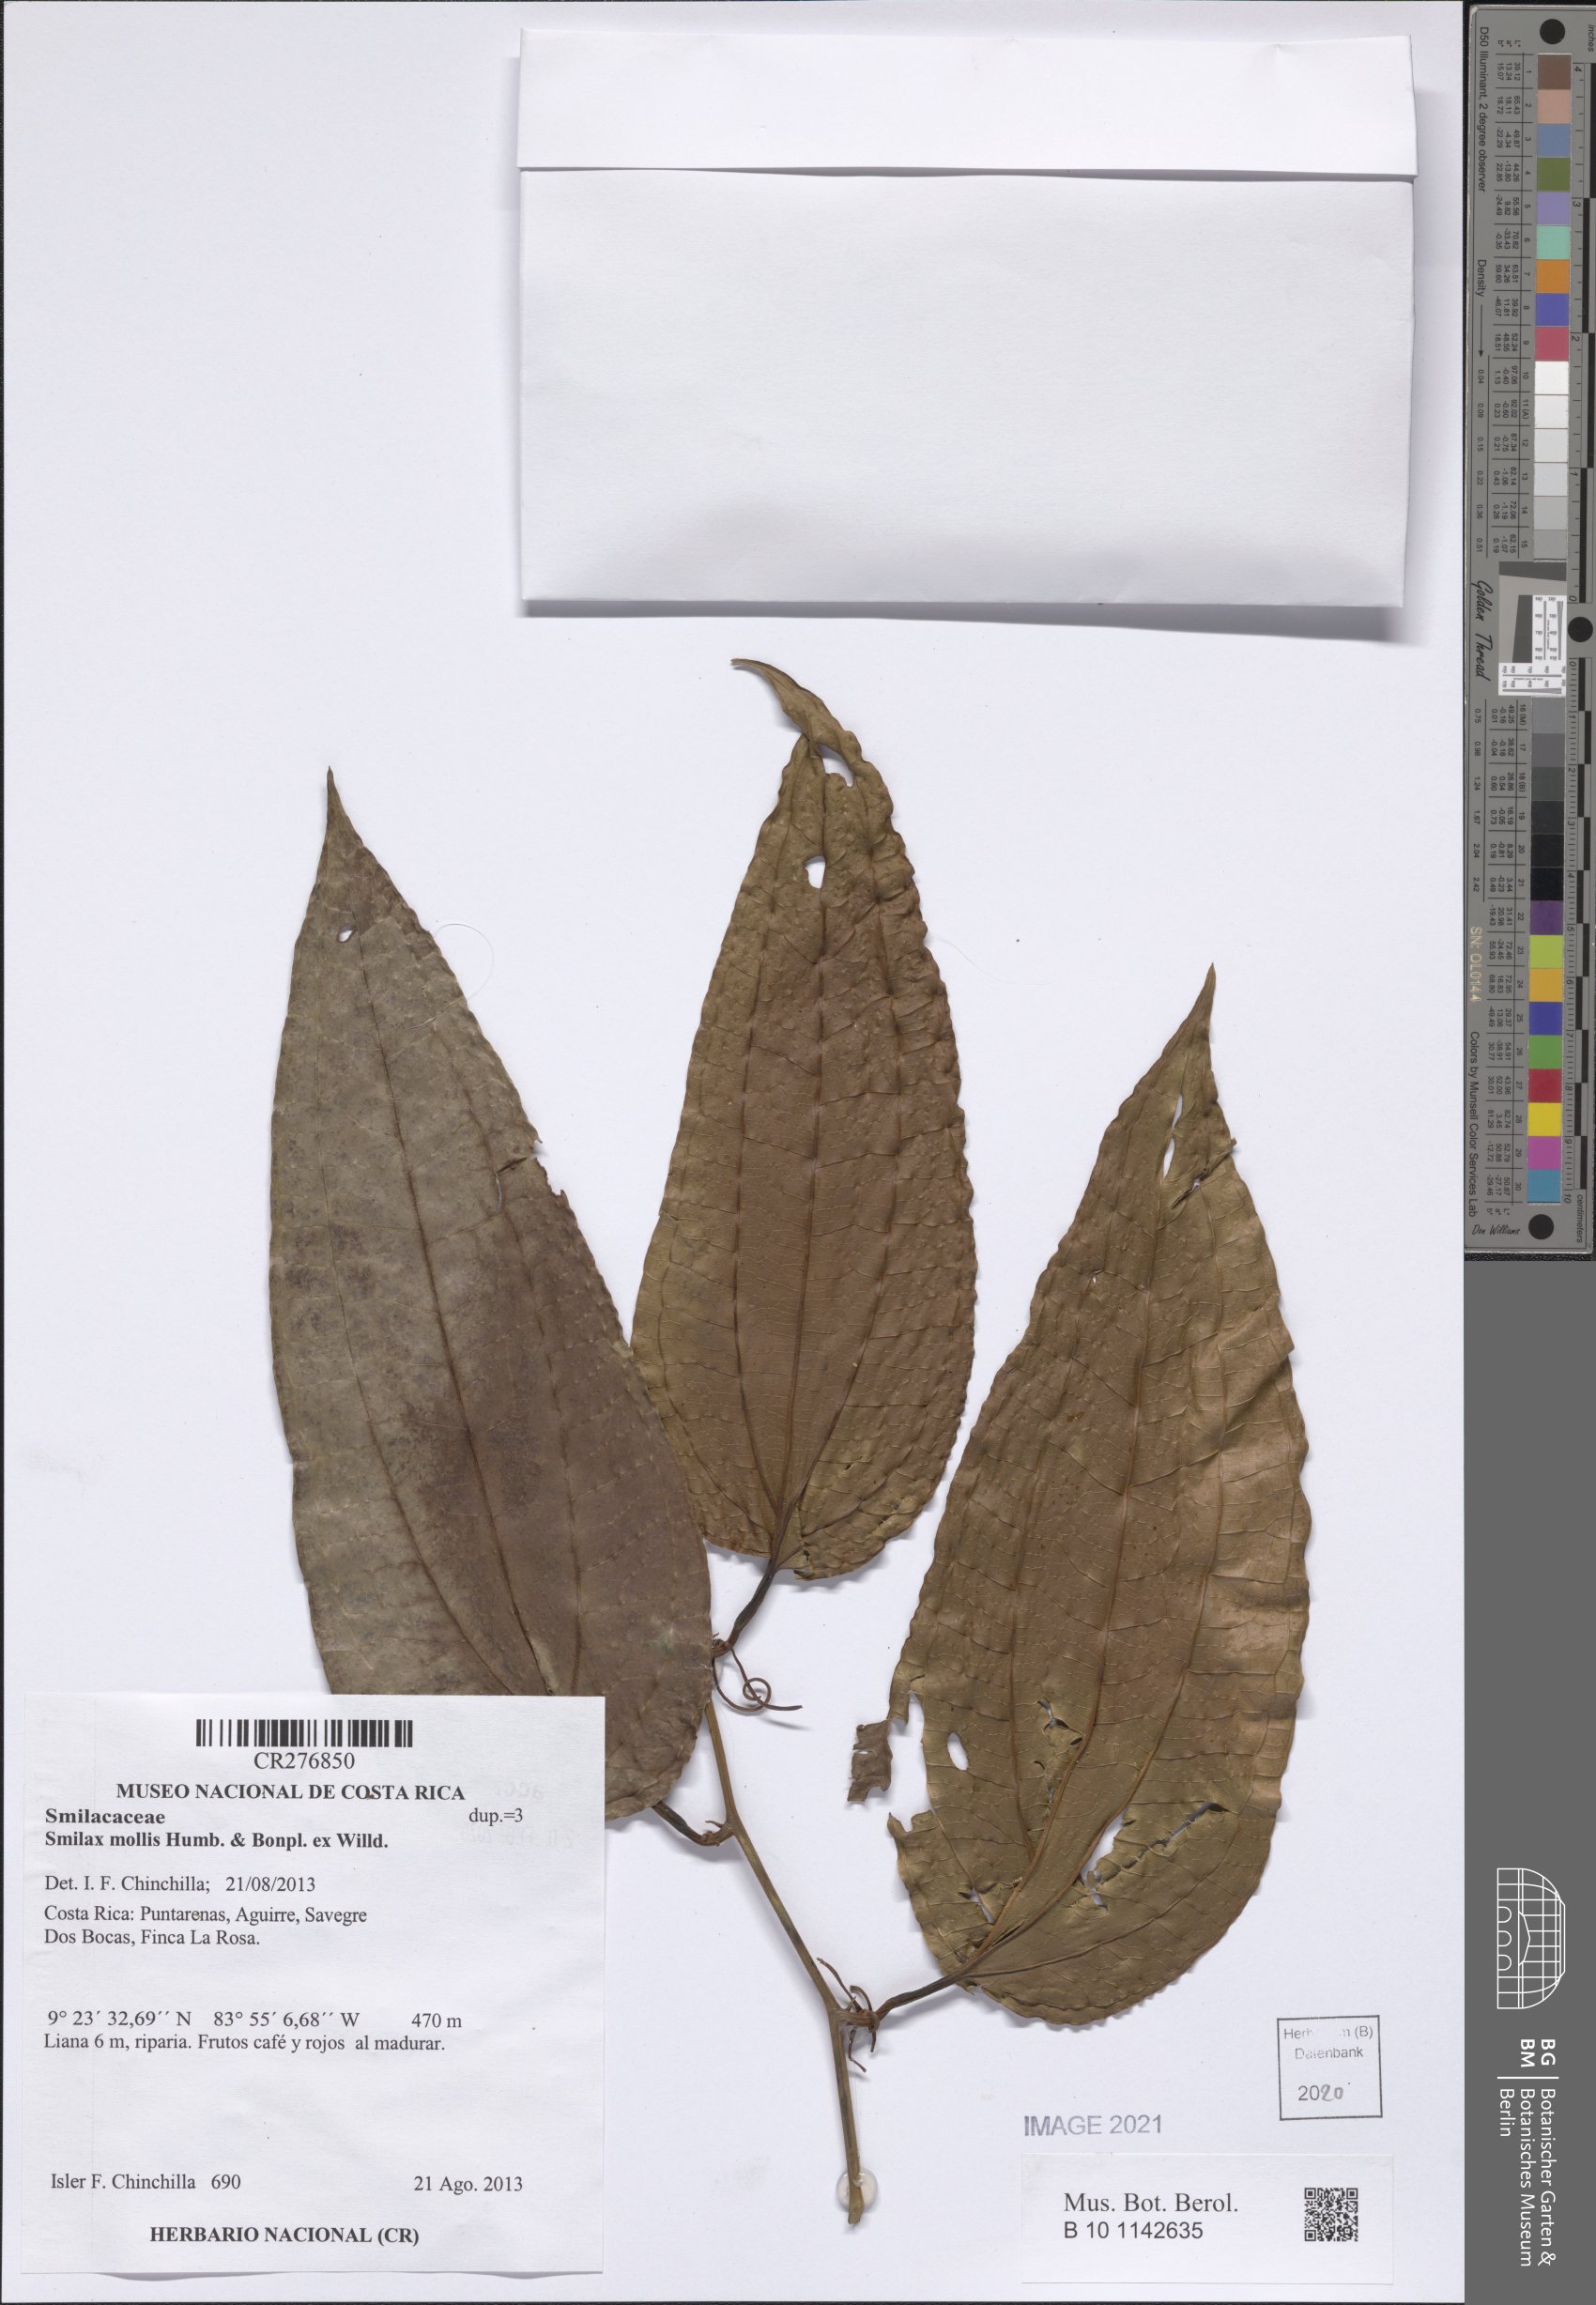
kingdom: Plantae
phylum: Tracheophyta
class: Liliopsida
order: Liliales
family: Smilacaceae
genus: Smilax
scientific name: Smilax mollis
